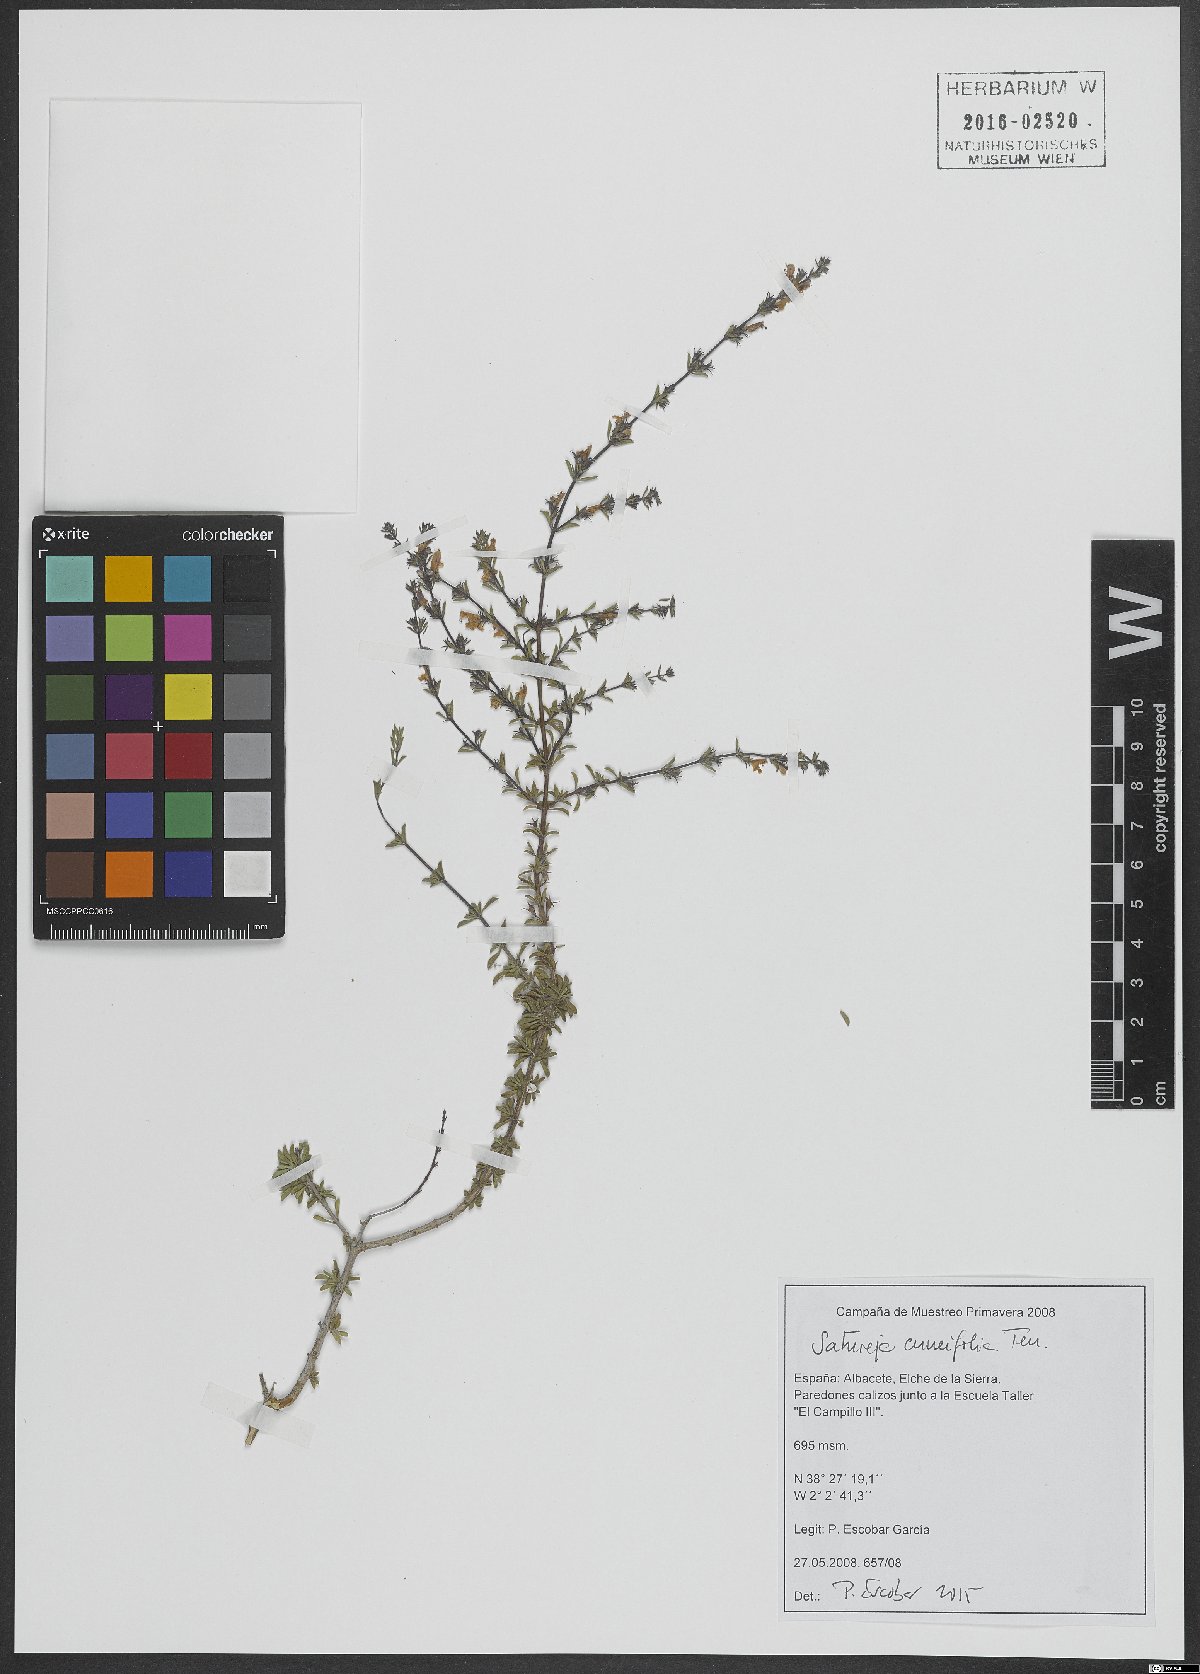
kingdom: Plantae
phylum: Tracheophyta
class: Magnoliopsida
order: Lamiales
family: Lamiaceae
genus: Satureja
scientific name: Satureja cuneifolia
